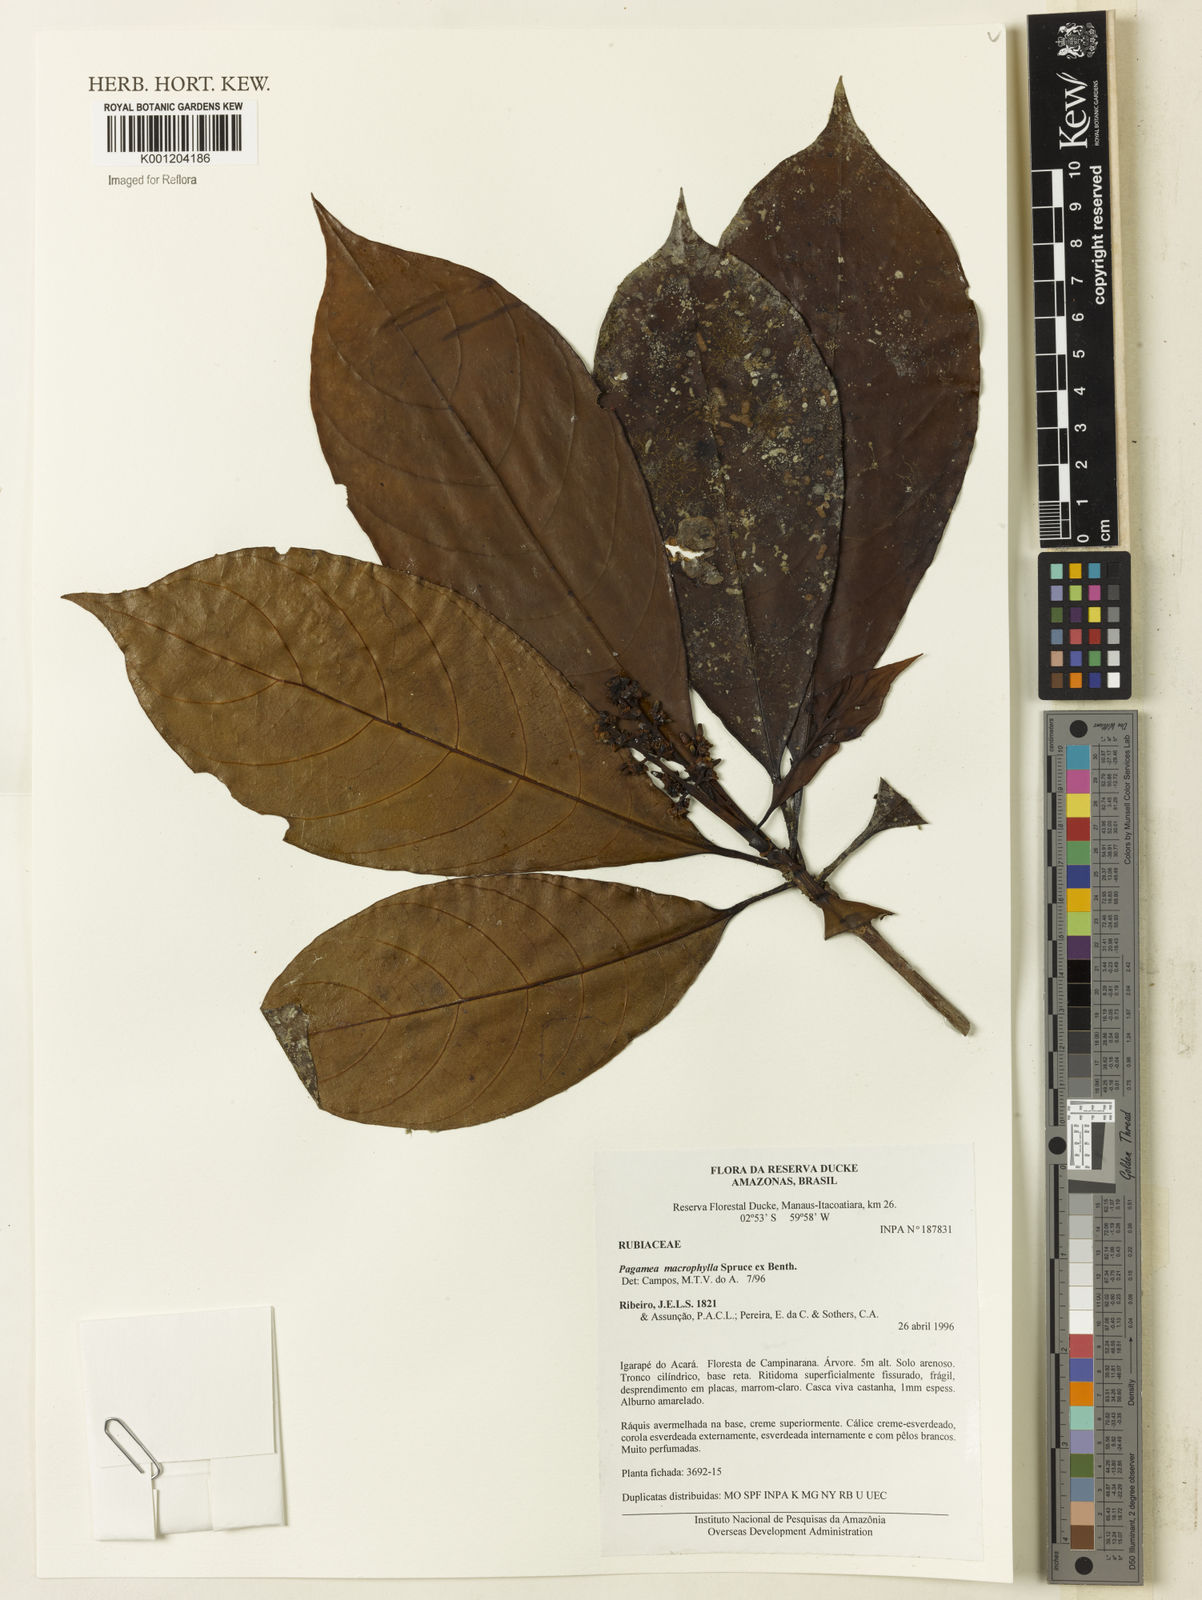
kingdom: Plantae
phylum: Tracheophyta
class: Magnoliopsida
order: Gentianales
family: Rubiaceae
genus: Pagamea
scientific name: Pagamea macrophylla
